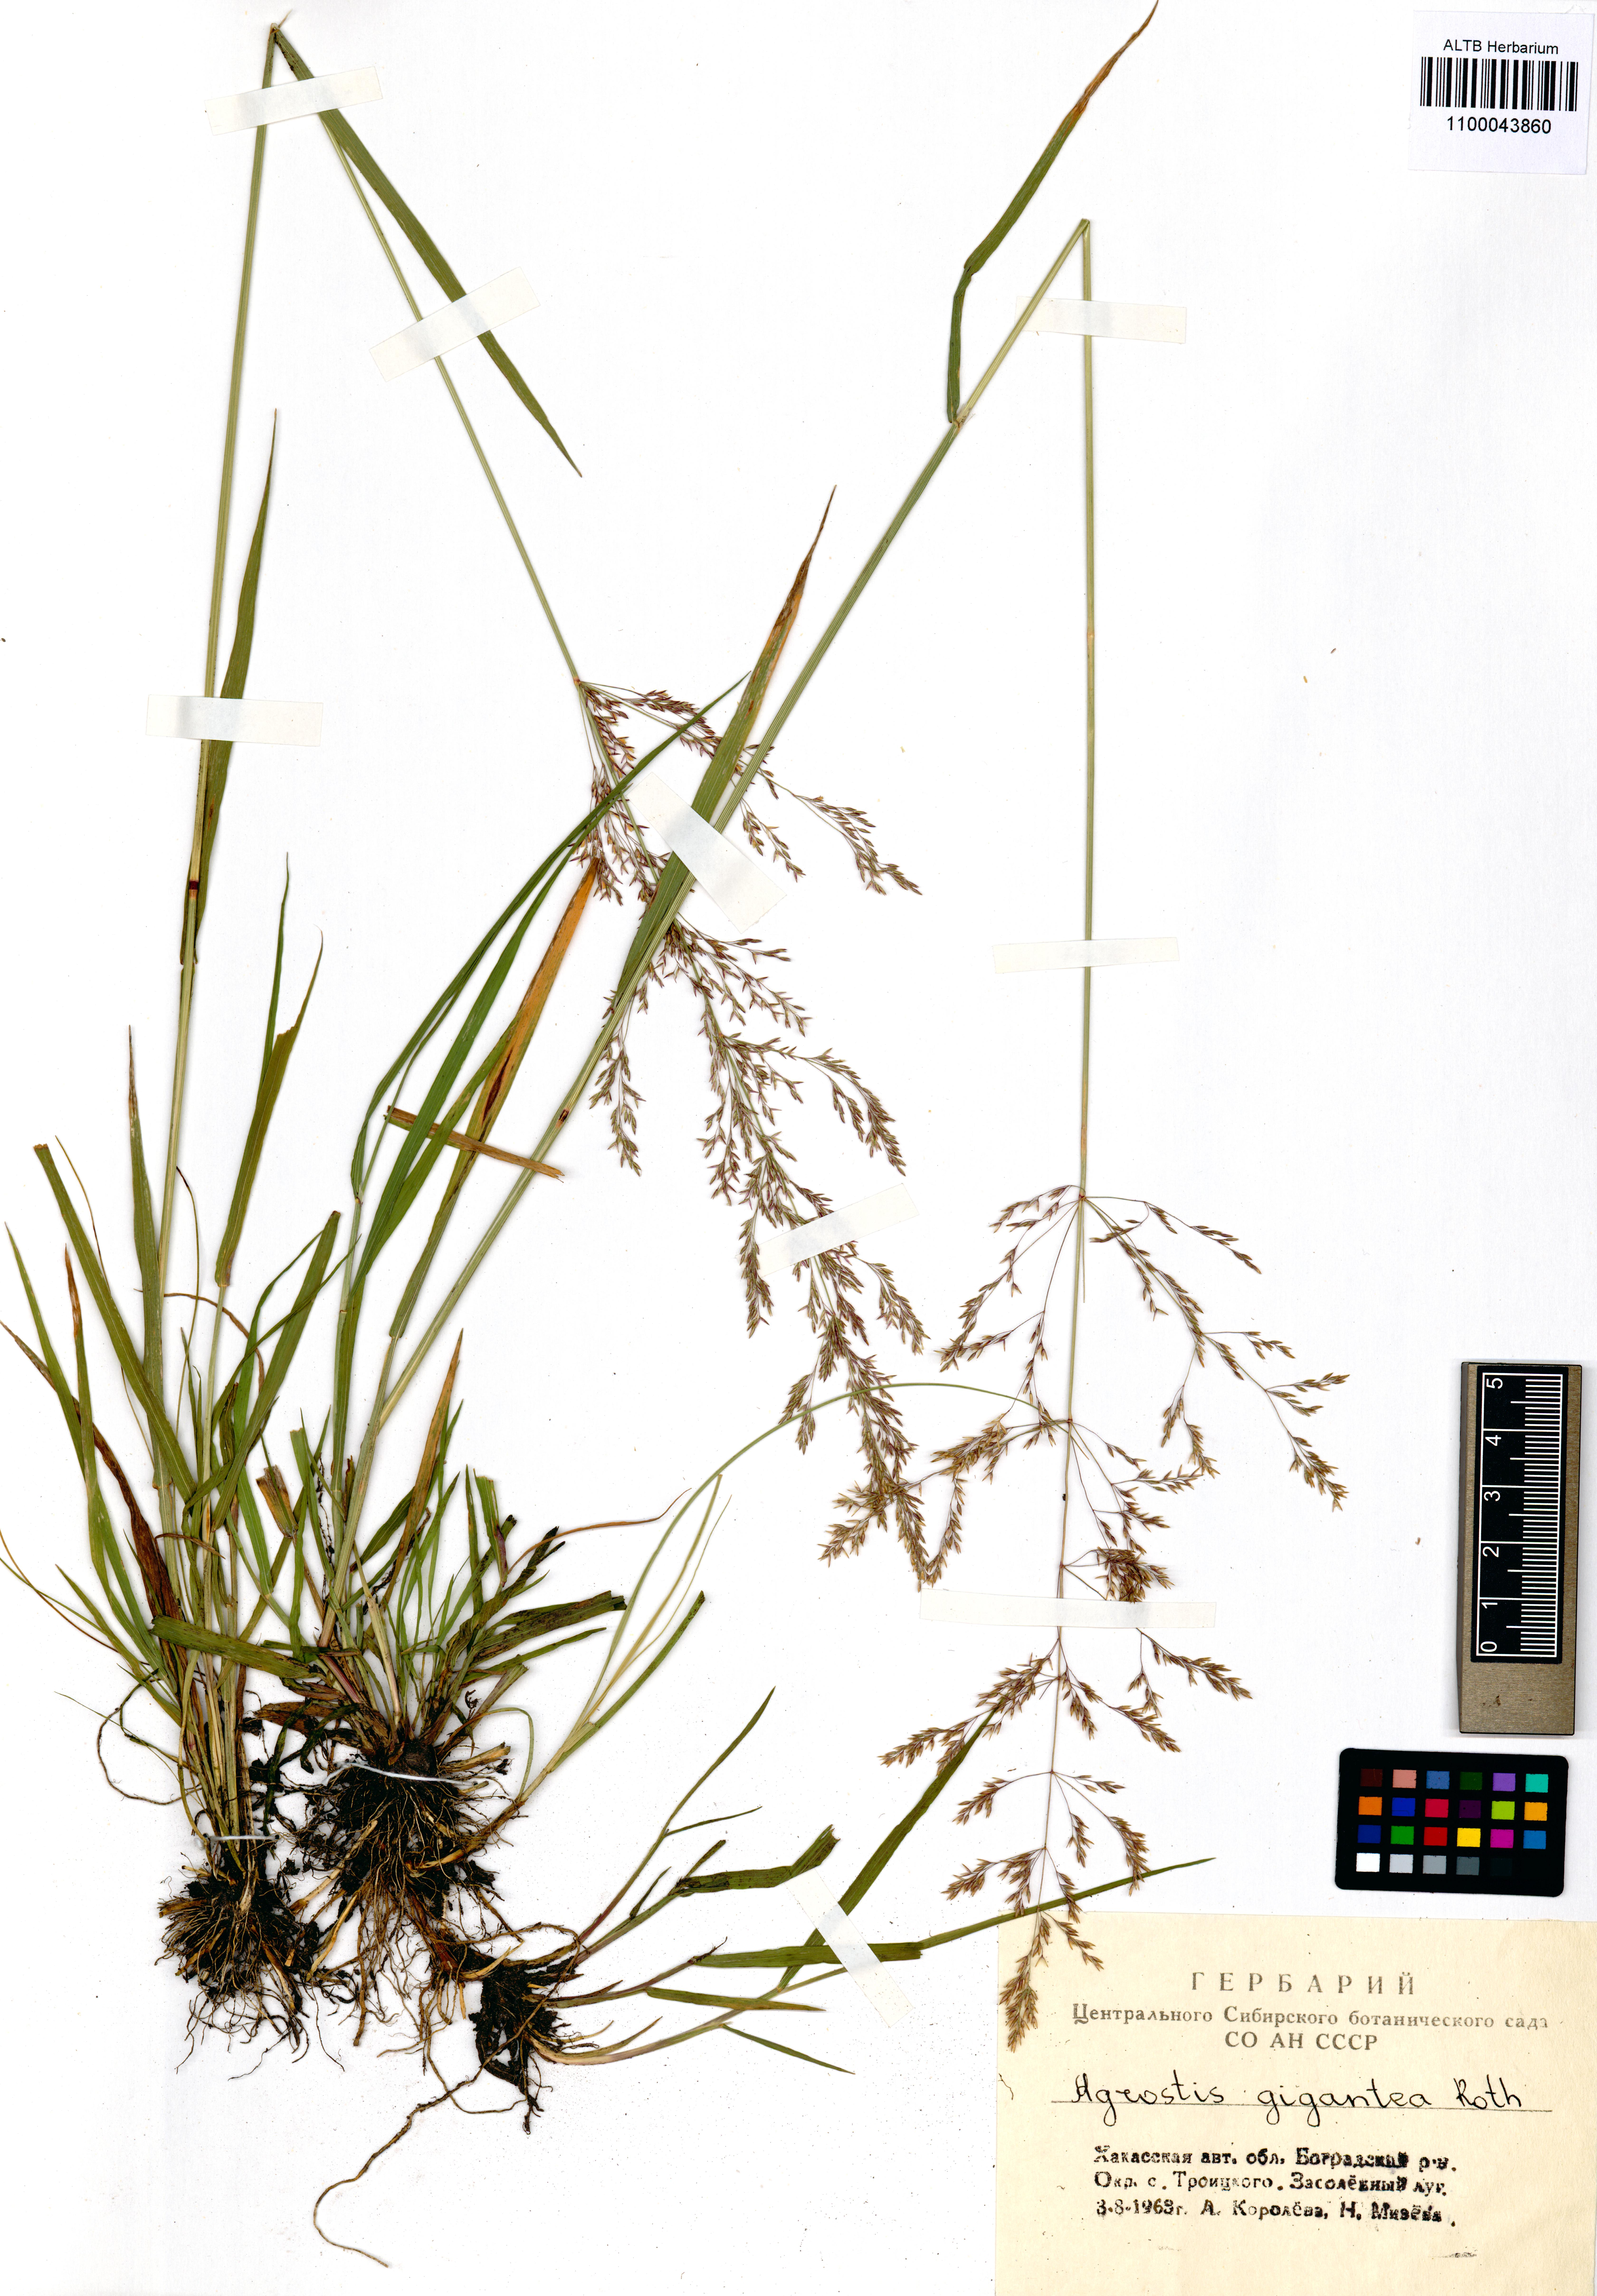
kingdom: Plantae
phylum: Tracheophyta
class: Liliopsida
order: Poales
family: Poaceae
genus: Agrostis
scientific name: Agrostis gigantea
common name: Black bent
